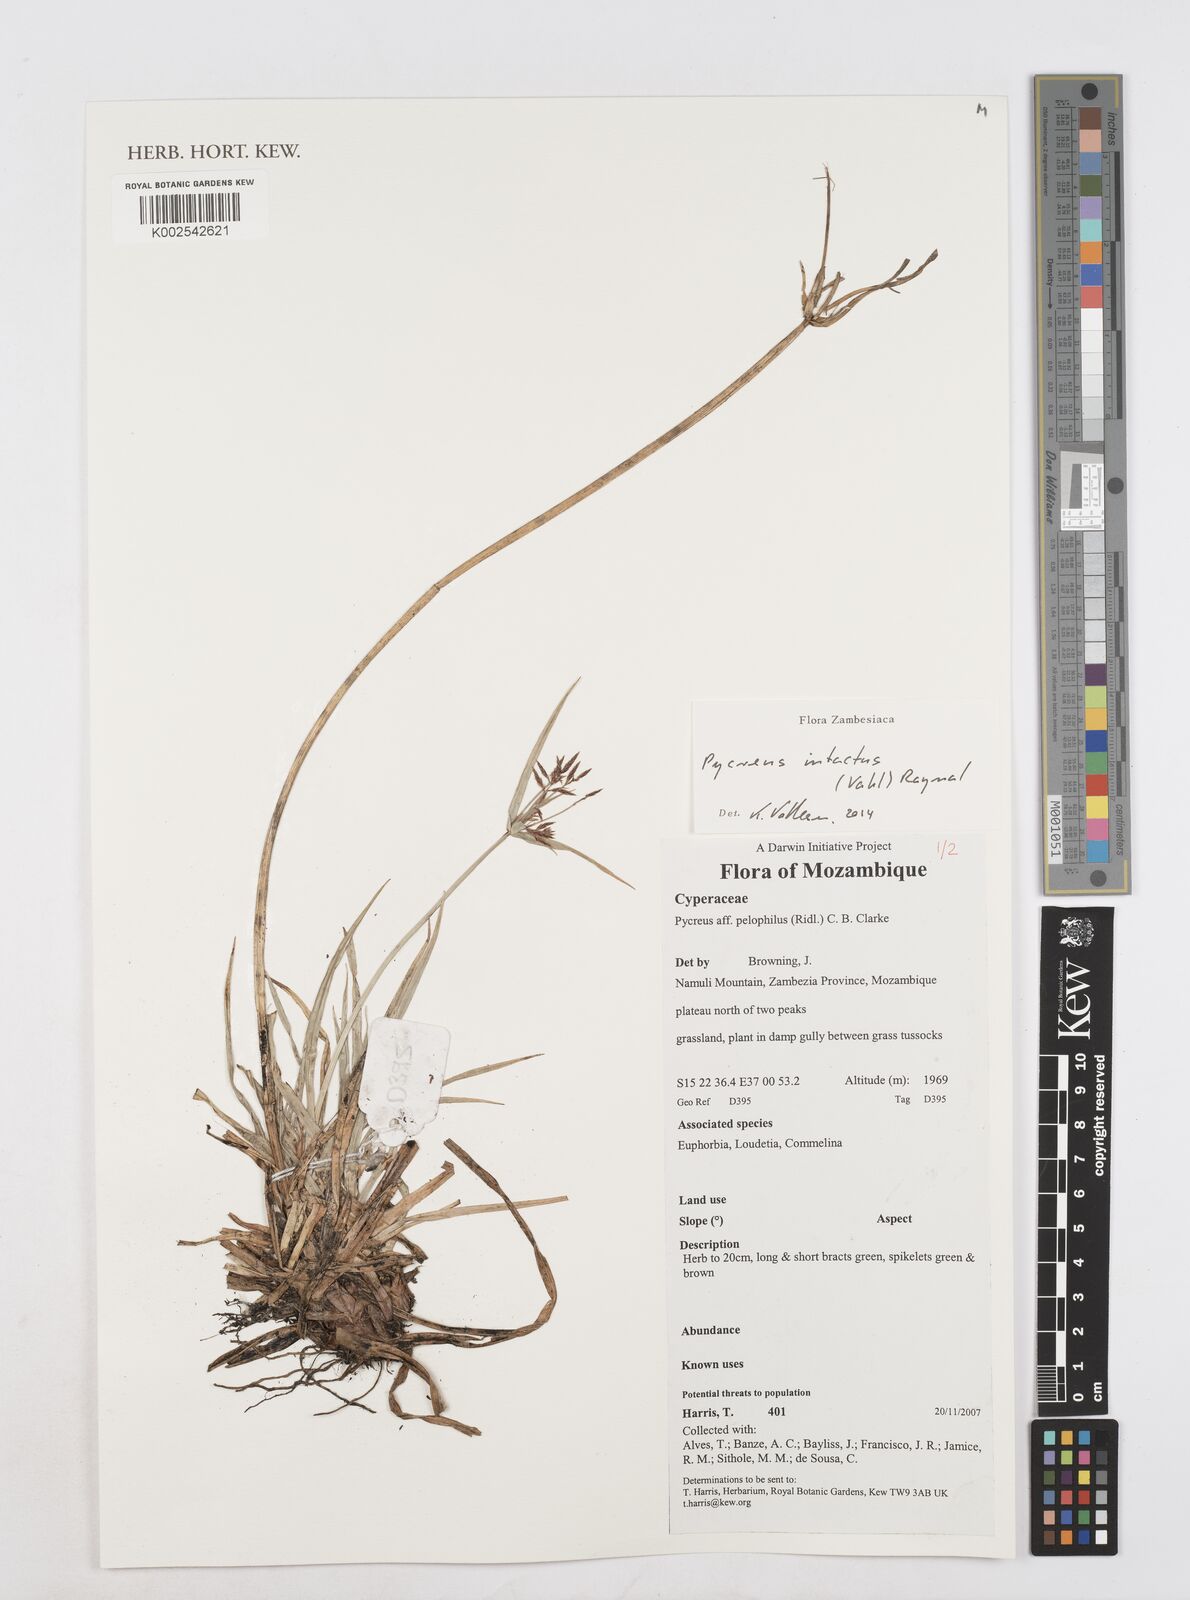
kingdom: Plantae
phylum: Tracheophyta
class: Liliopsida
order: Poales
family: Cyperaceae
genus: Cyperus
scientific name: Cyperus intactus
